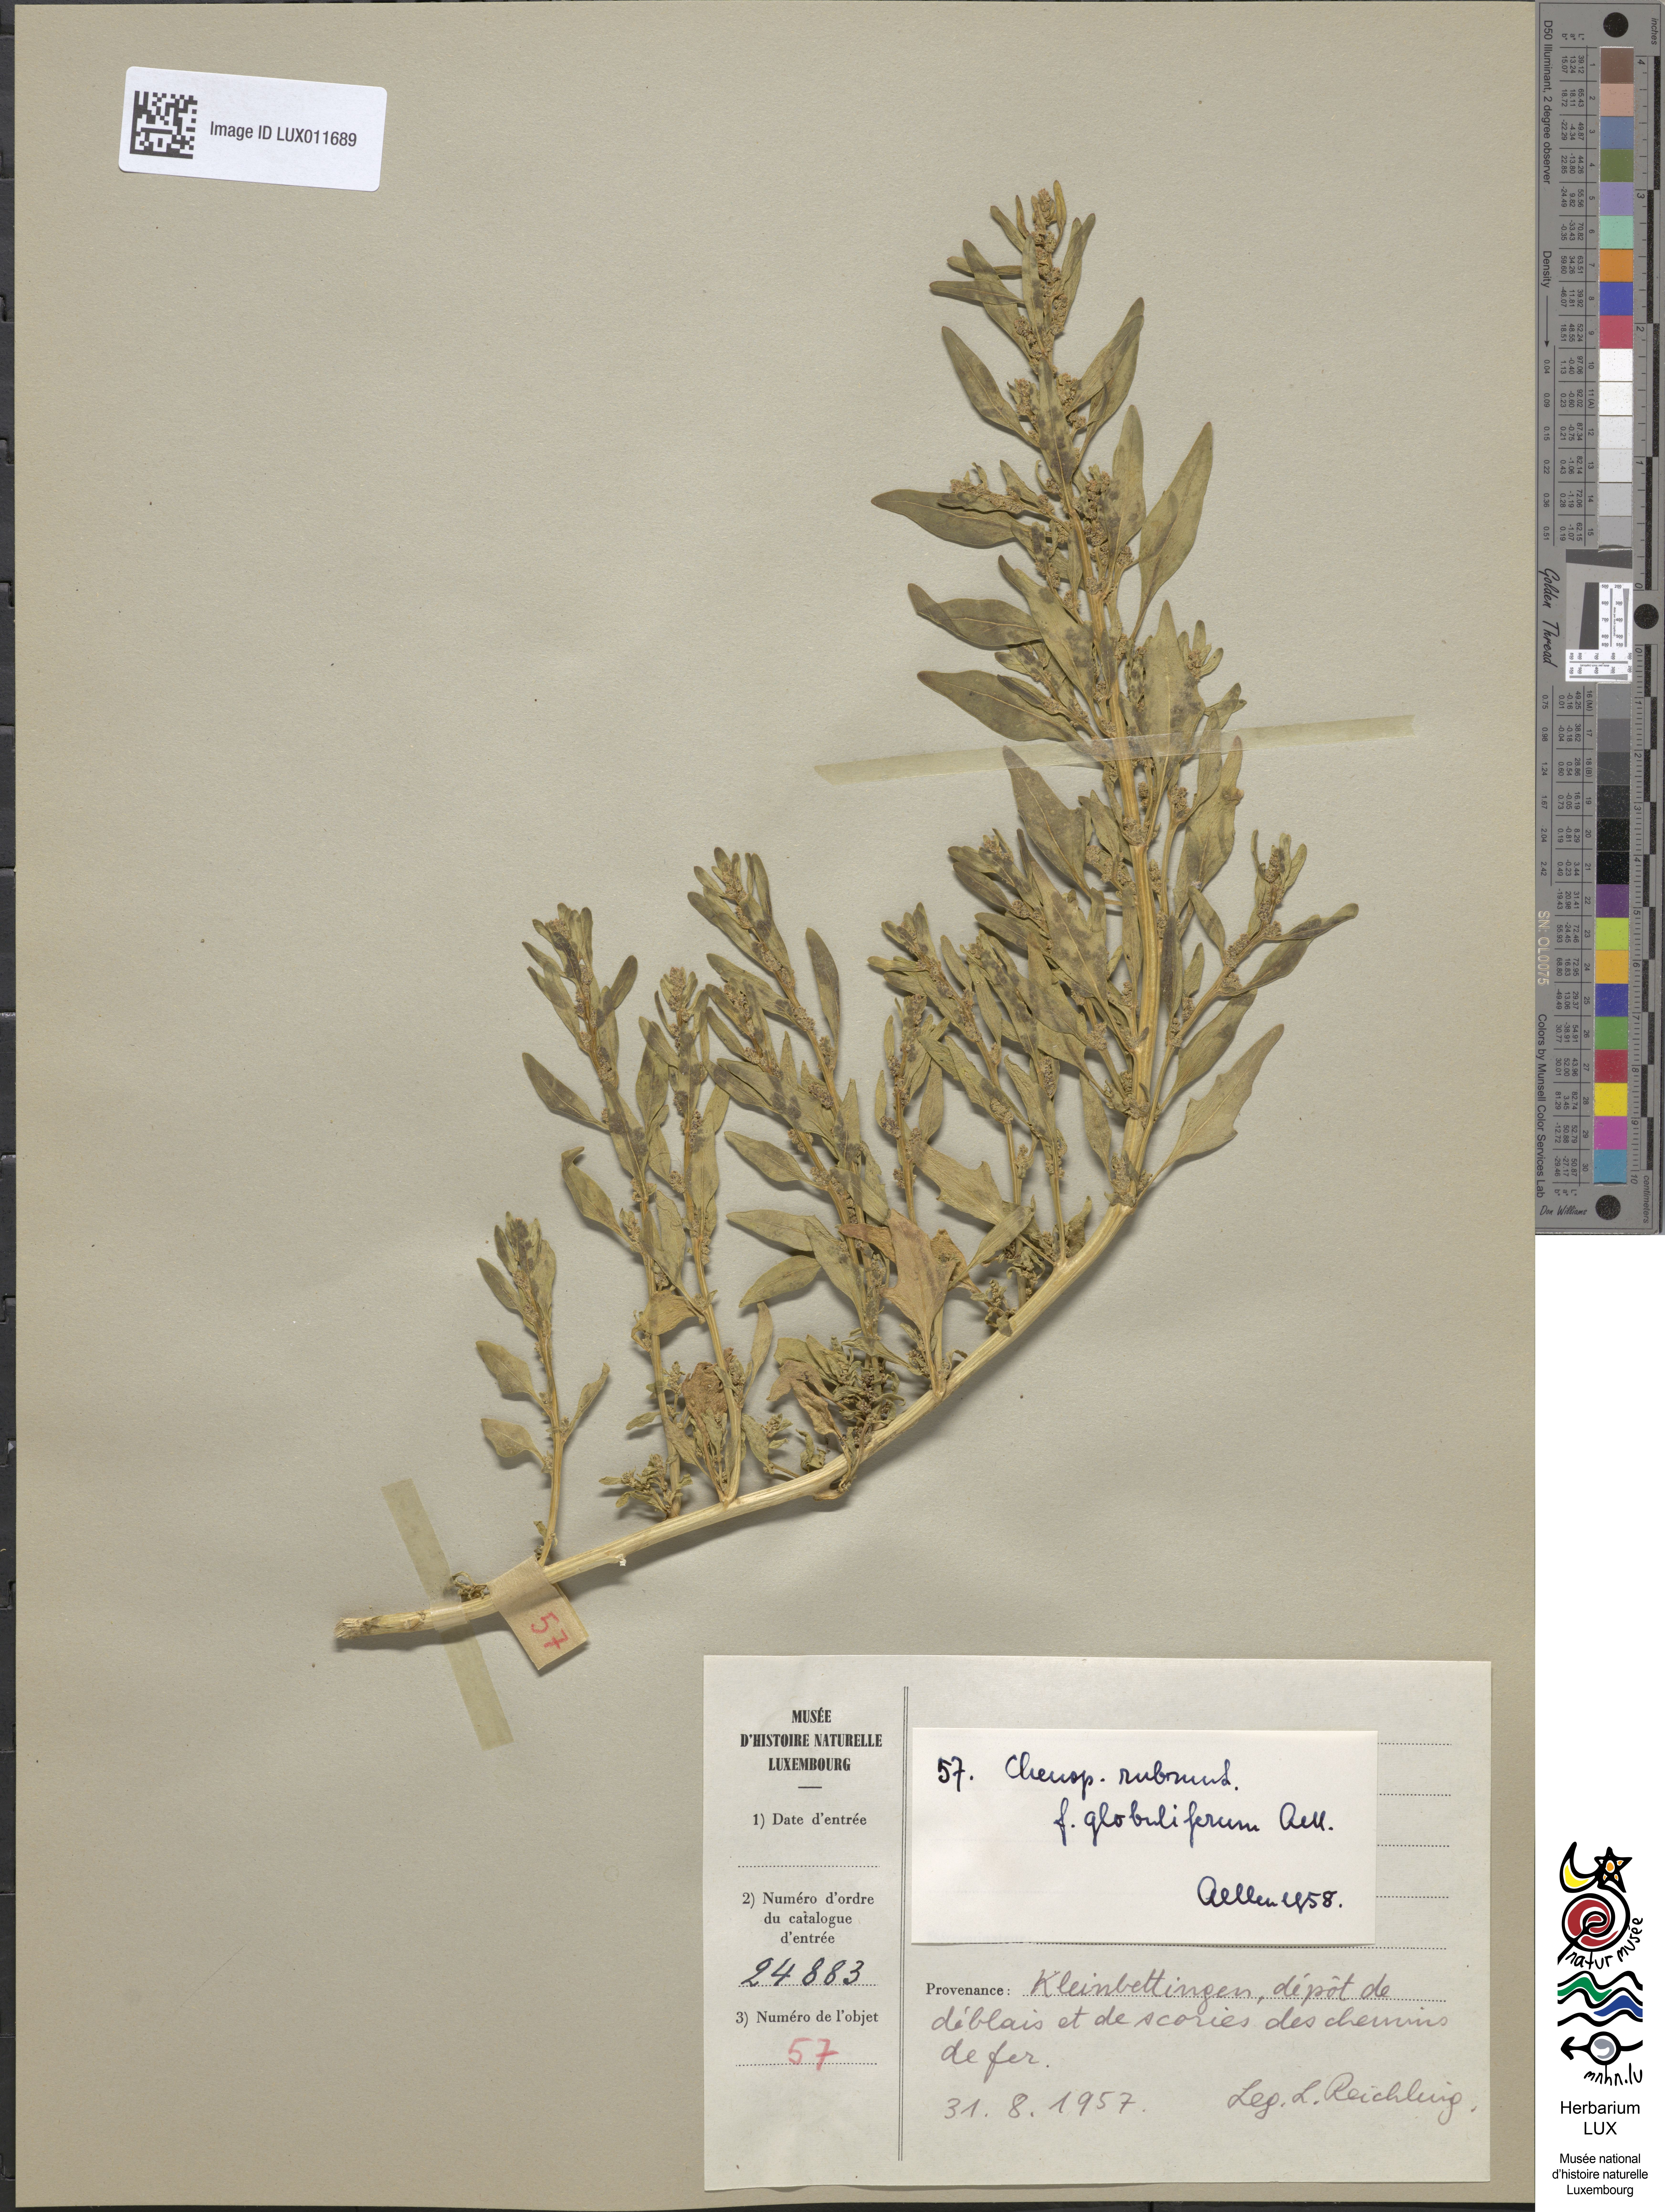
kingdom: Plantae
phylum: Tracheophyta
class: Magnoliopsida
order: Caryophyllales
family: Amaranthaceae
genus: Oxybasis
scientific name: Oxybasis rubra
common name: Red goosefoot
